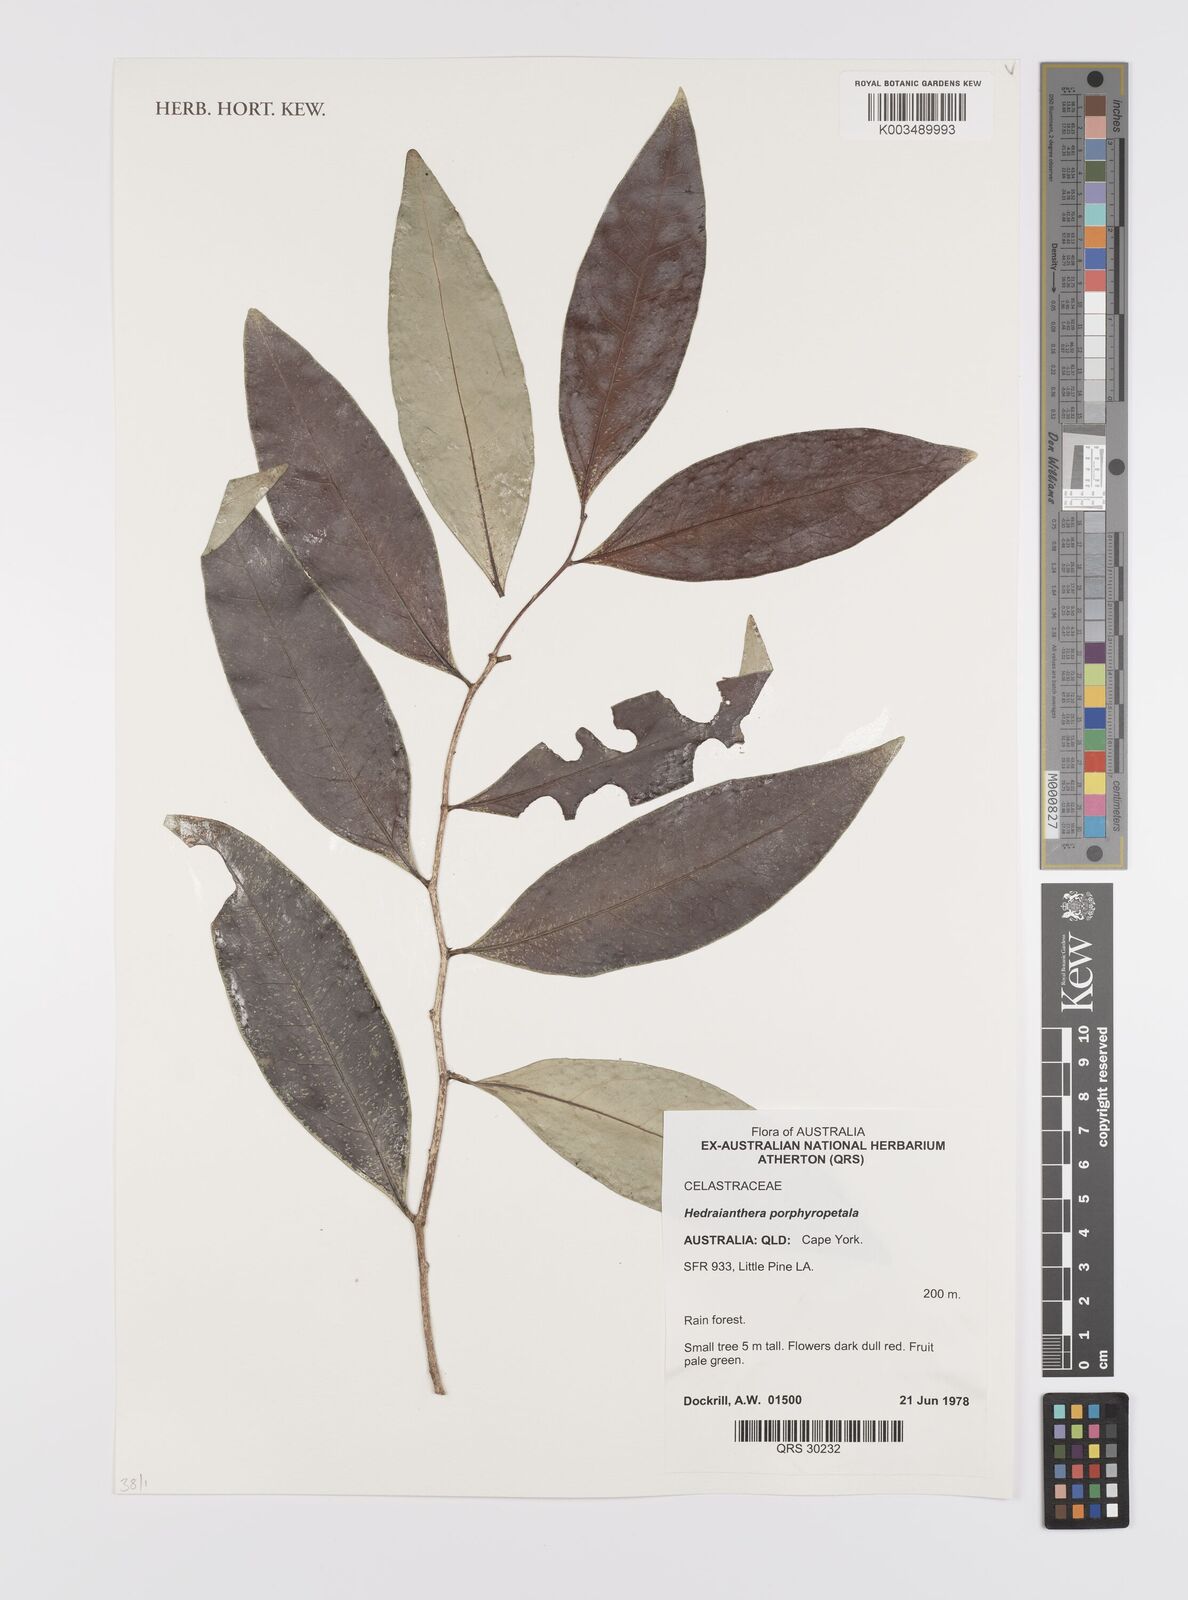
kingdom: Plantae
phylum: Tracheophyta
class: Magnoliopsida
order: Celastrales
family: Celastraceae
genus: Hedraianthera
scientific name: Hedraianthera porphyropetala
